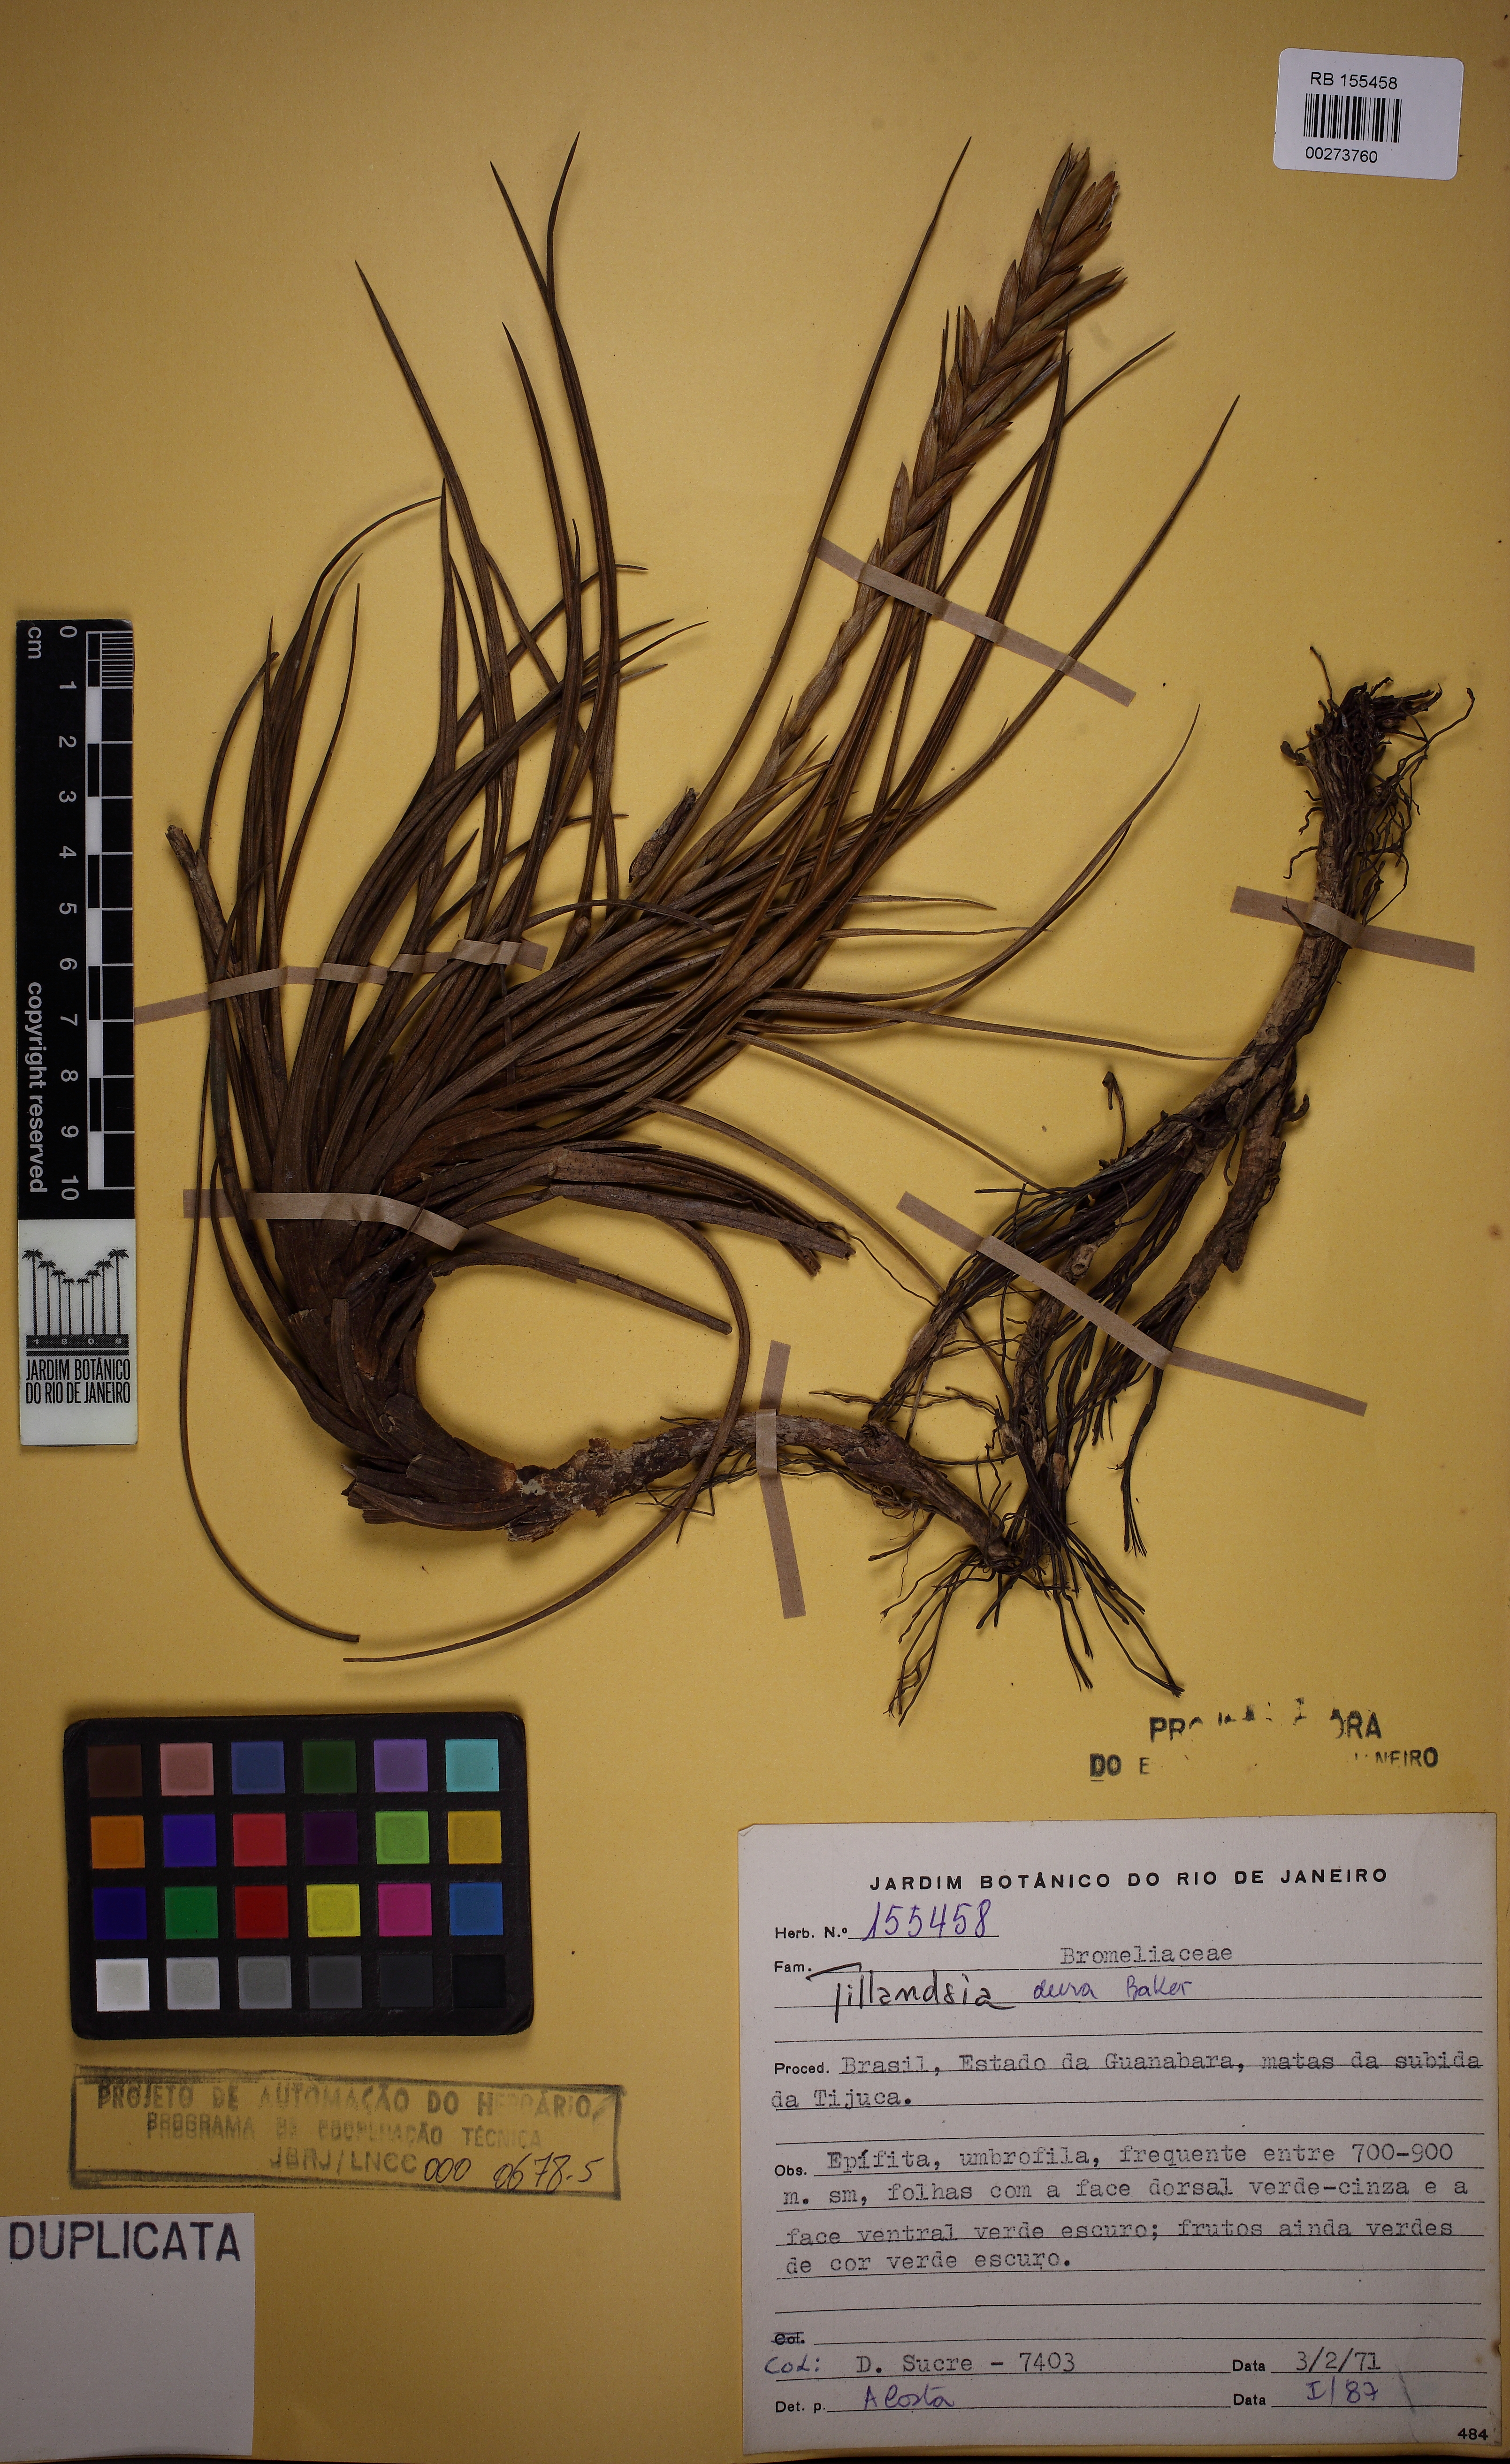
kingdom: Plantae
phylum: Tracheophyta
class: Liliopsida
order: Poales
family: Bromeliaceae
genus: Tillandsia
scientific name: Tillandsia dura
